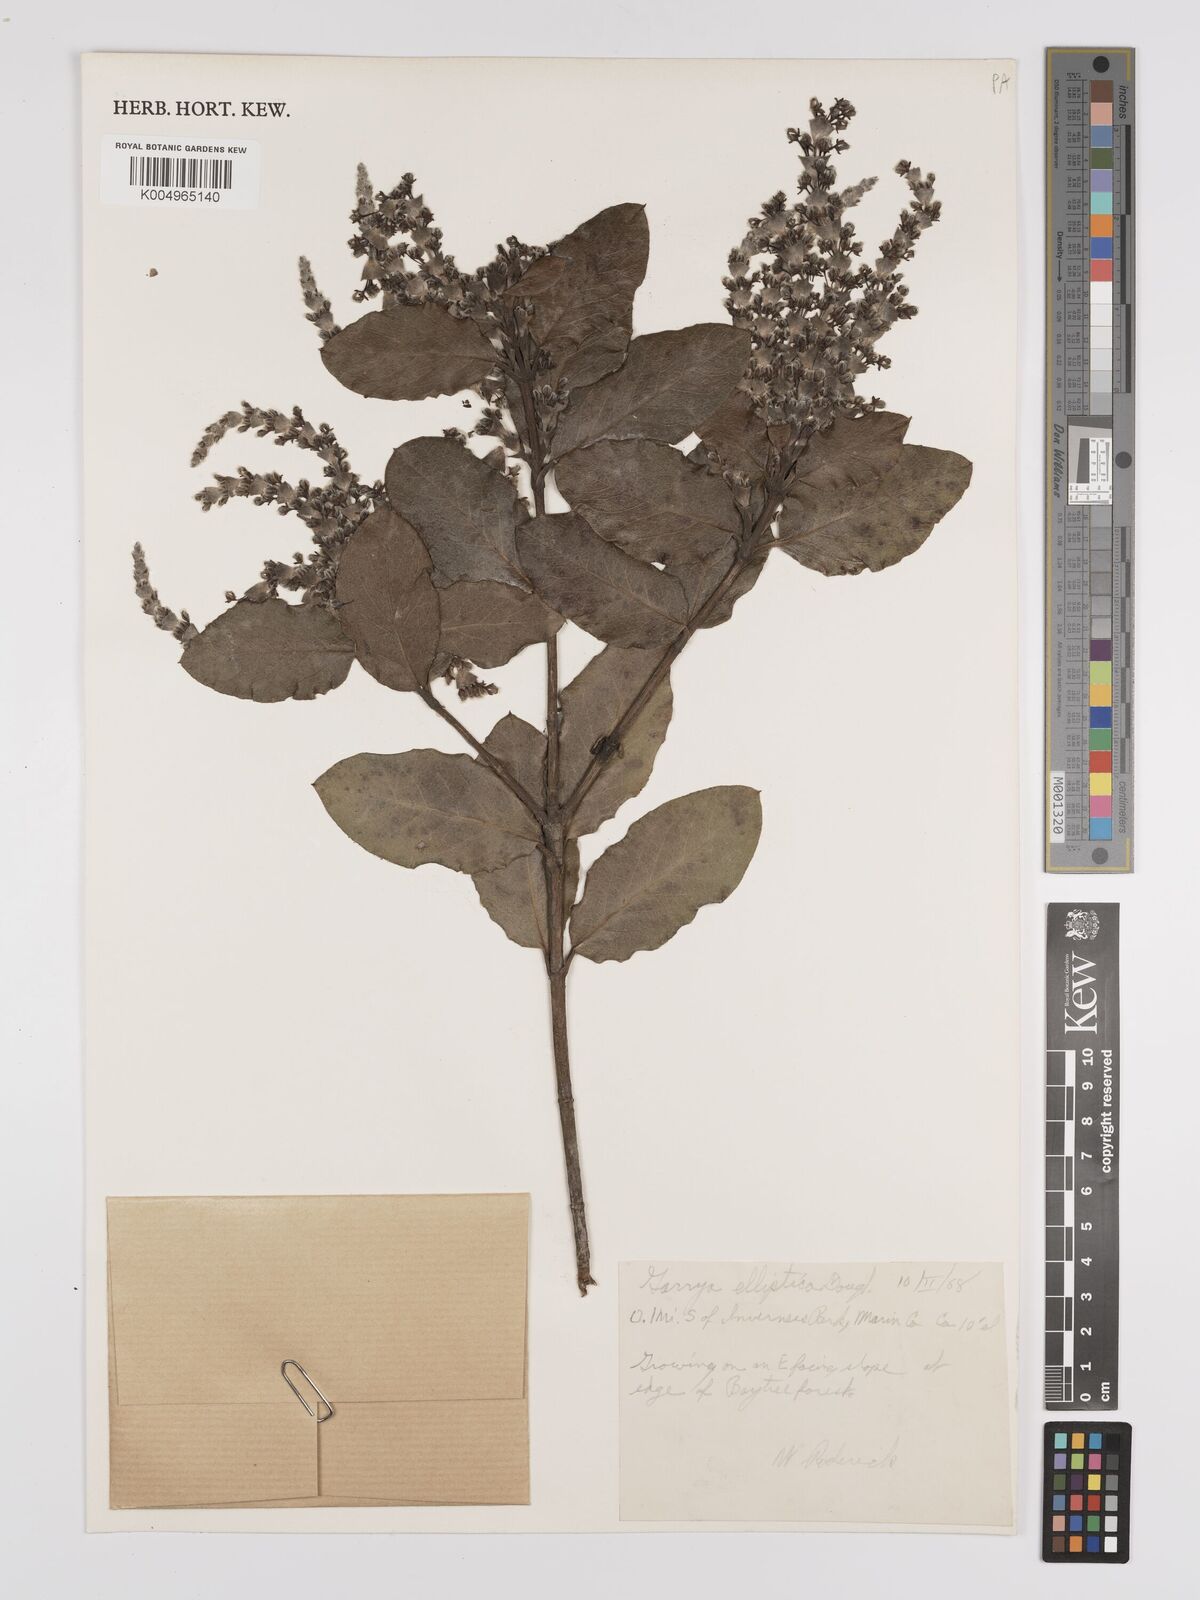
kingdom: Plantae
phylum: Tracheophyta
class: Magnoliopsida
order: Garryales
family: Garryaceae
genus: Garrya
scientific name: Garrya elliptica
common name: Silk-tassel
